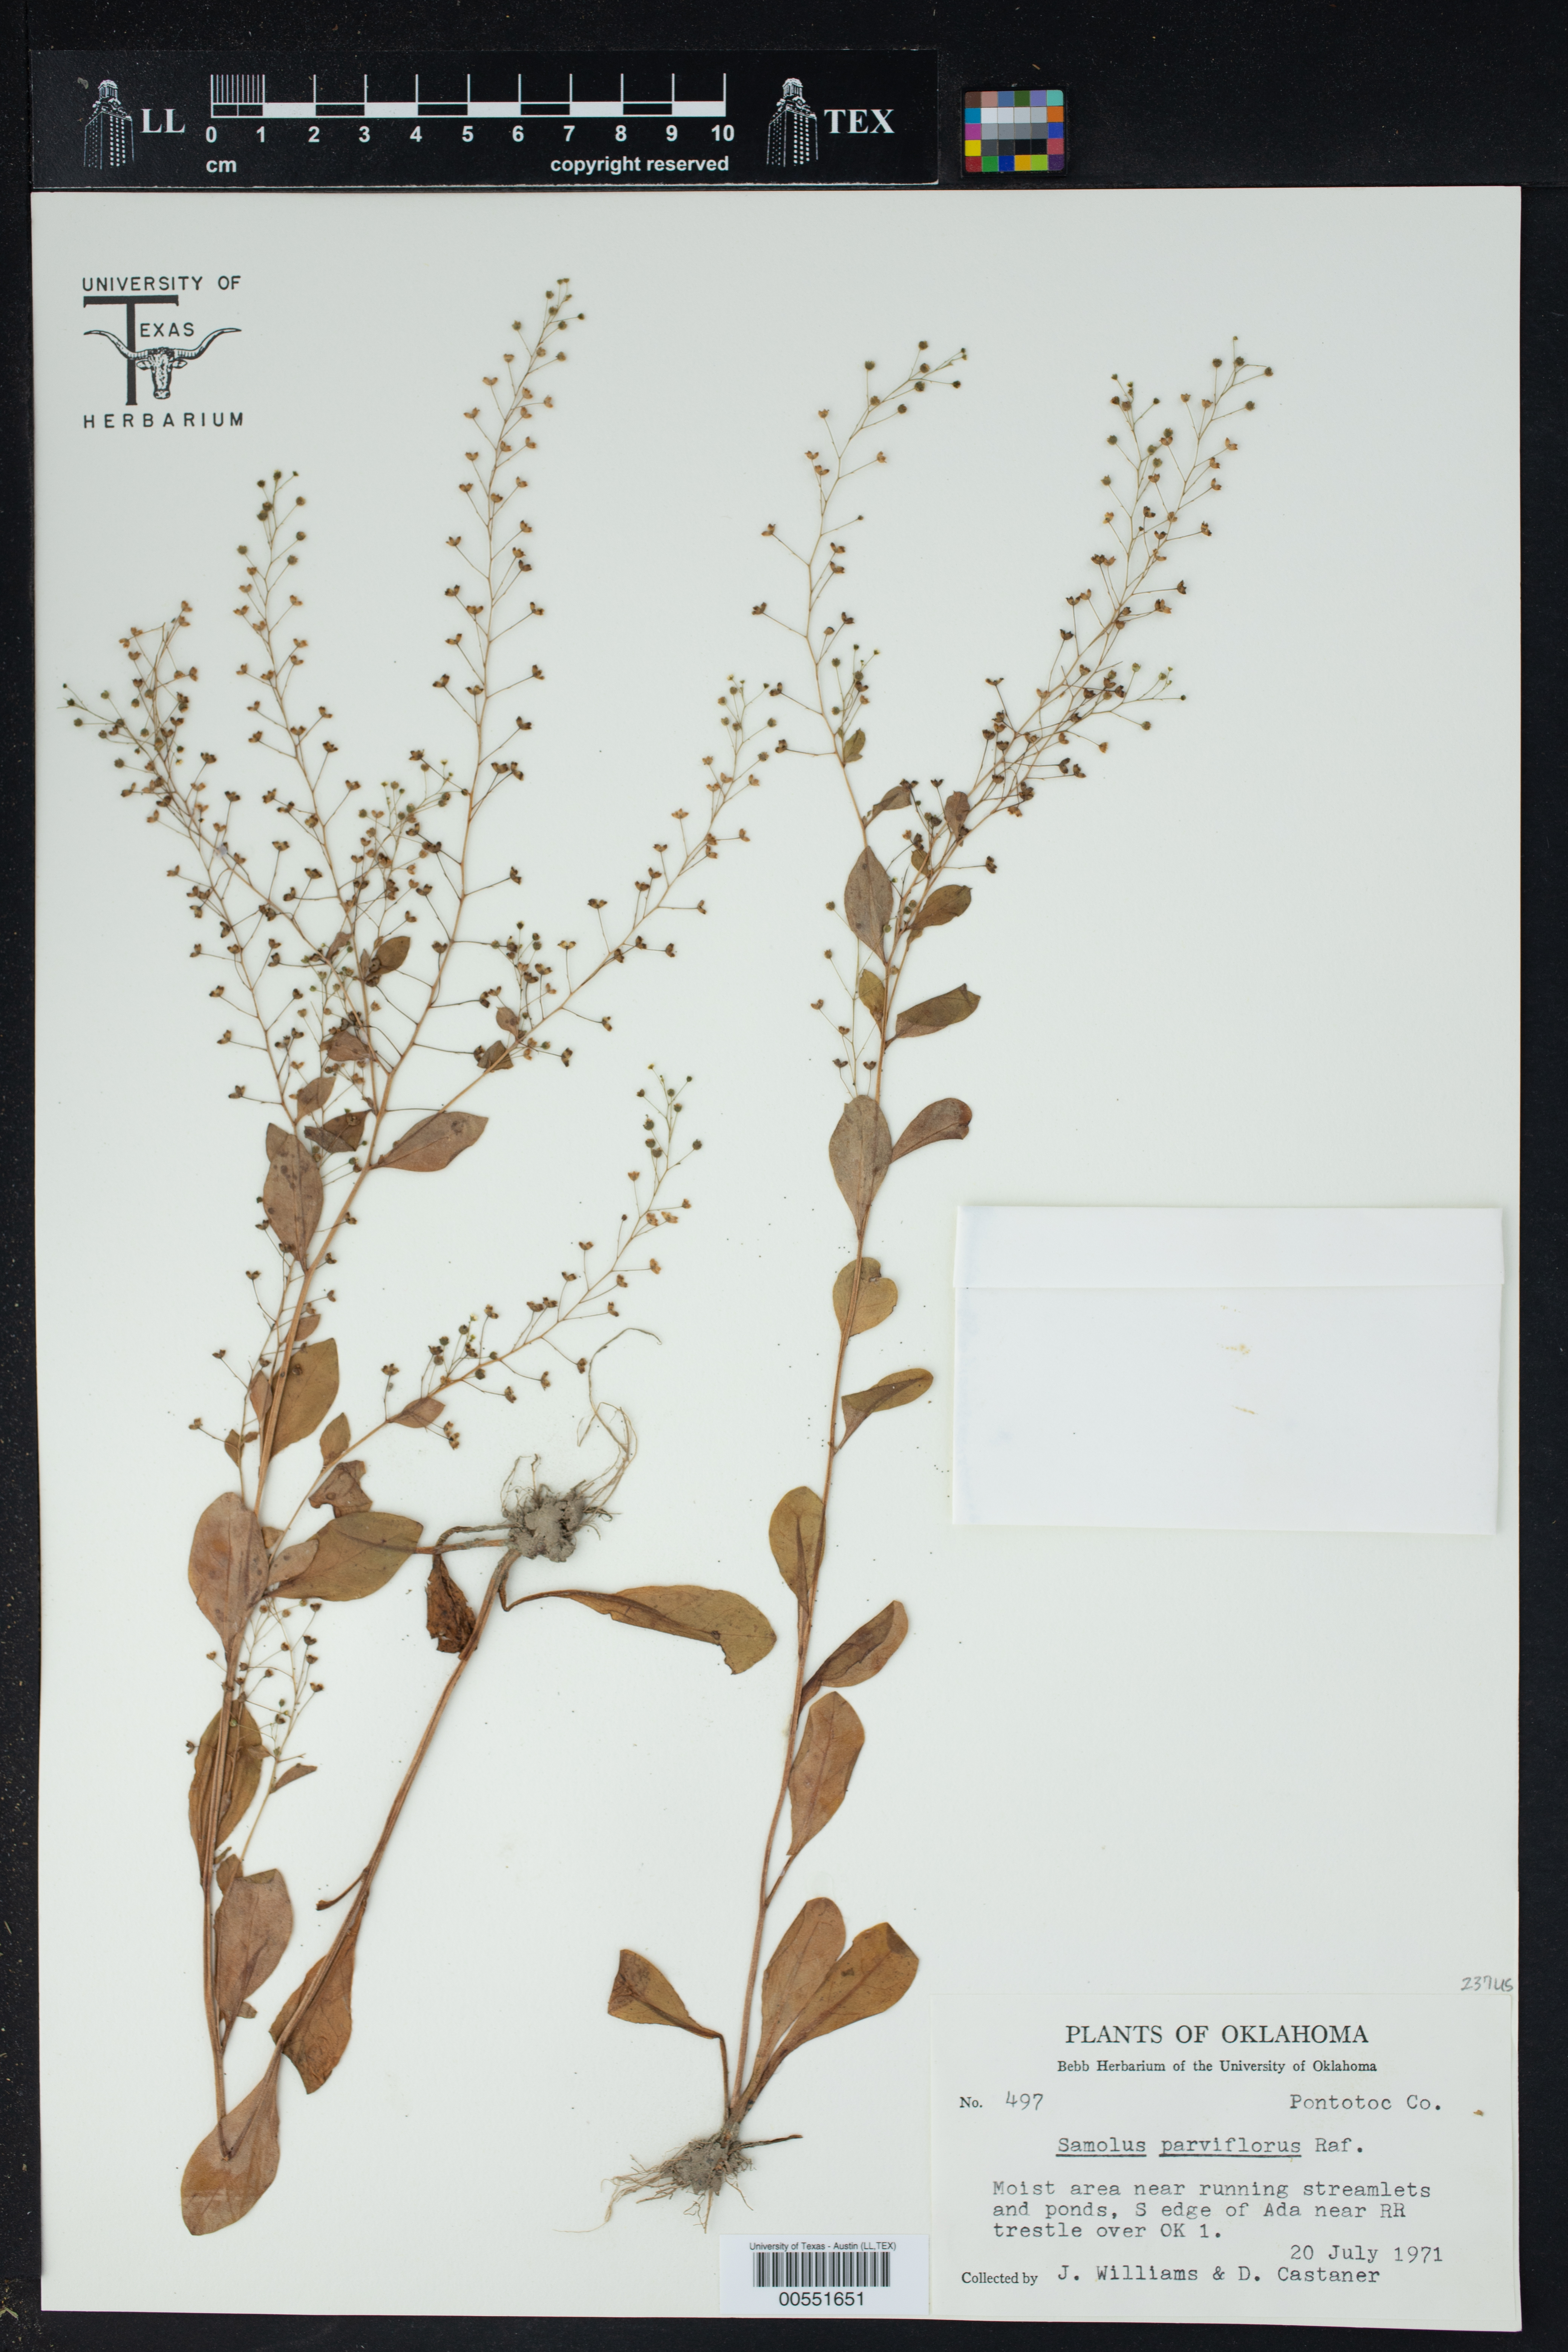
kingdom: Plantae
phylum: Tracheophyta
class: Magnoliopsida
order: Ericales
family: Primulaceae
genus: Samolus
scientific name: Samolus parviflorus
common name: False water pimpernel
